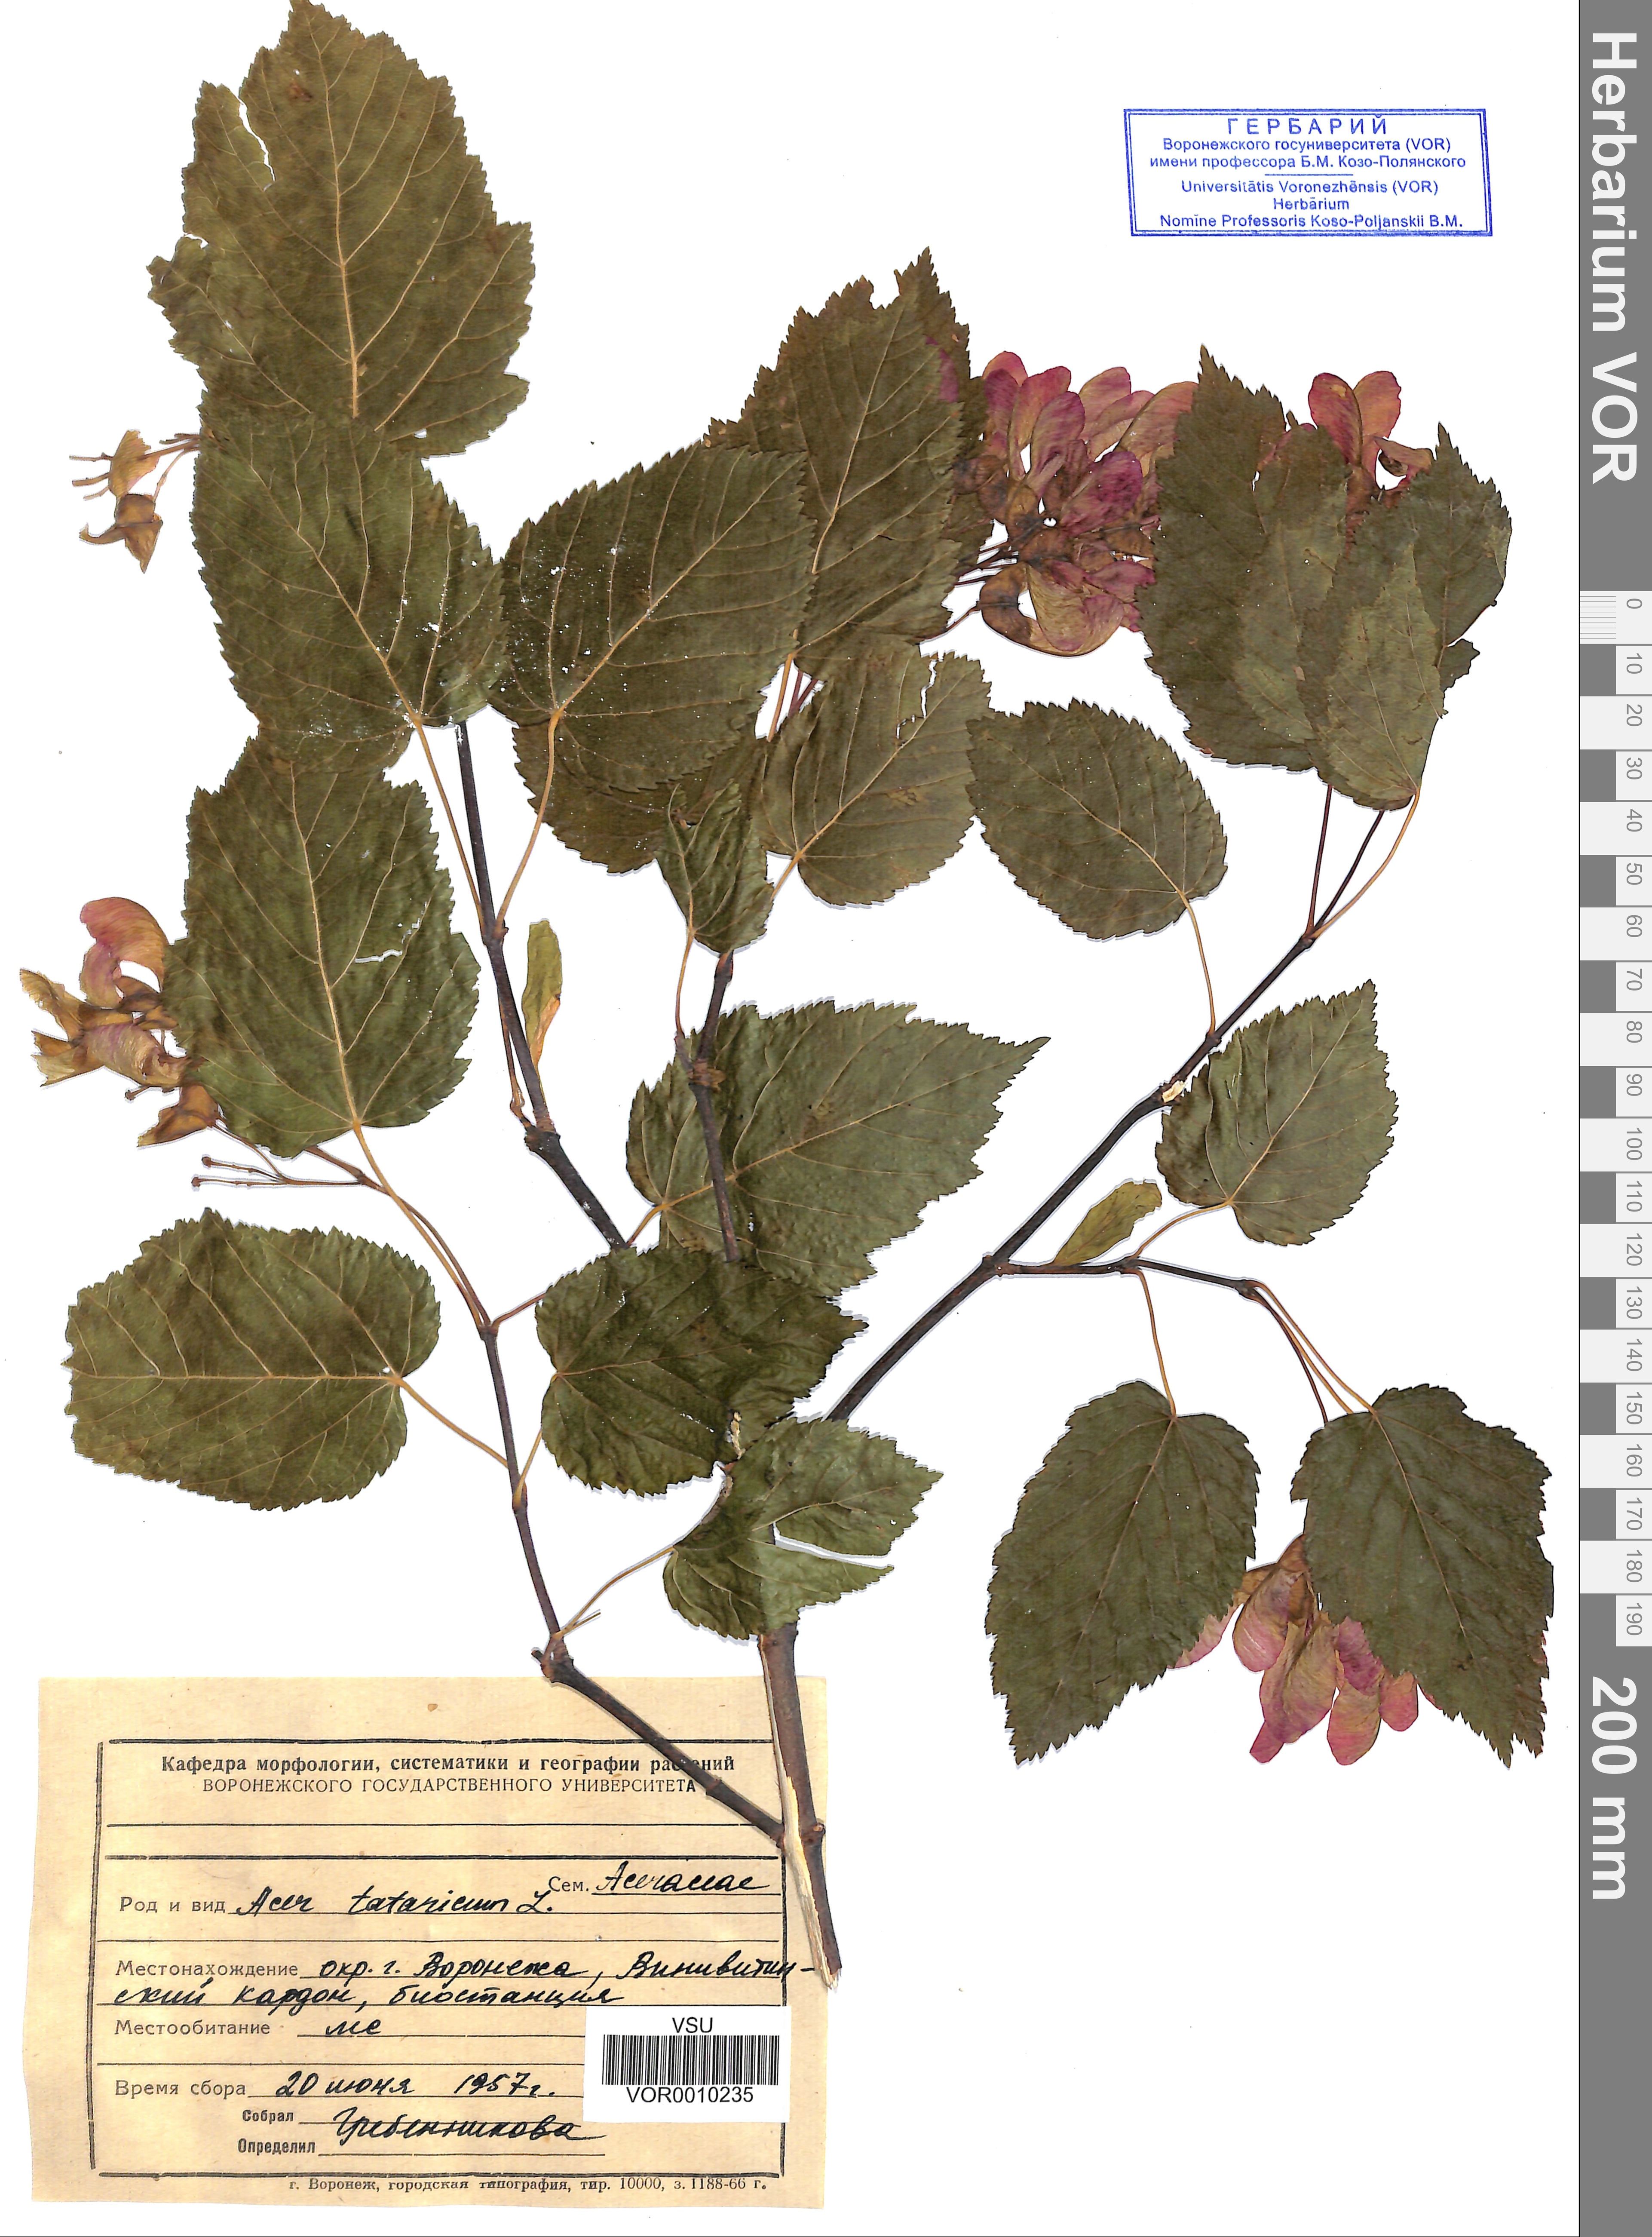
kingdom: Plantae
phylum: Tracheophyta
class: Magnoliopsida
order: Sapindales
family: Sapindaceae
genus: Acer
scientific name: Acer tataricum
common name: Tartar maple
